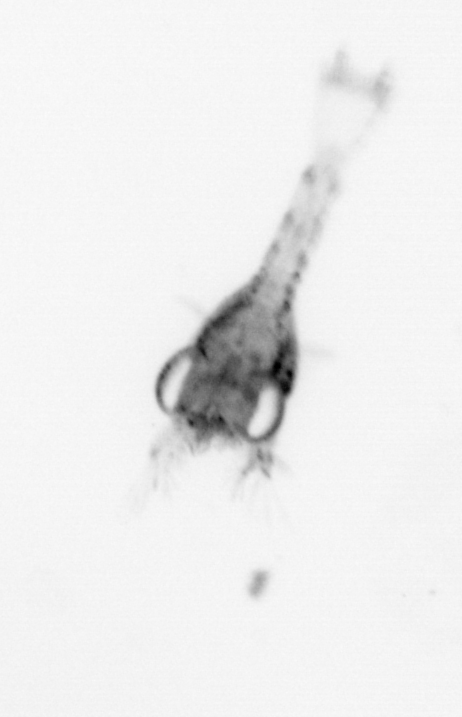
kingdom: Animalia
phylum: Arthropoda
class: Malacostraca
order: Decapoda
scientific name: Decapoda
